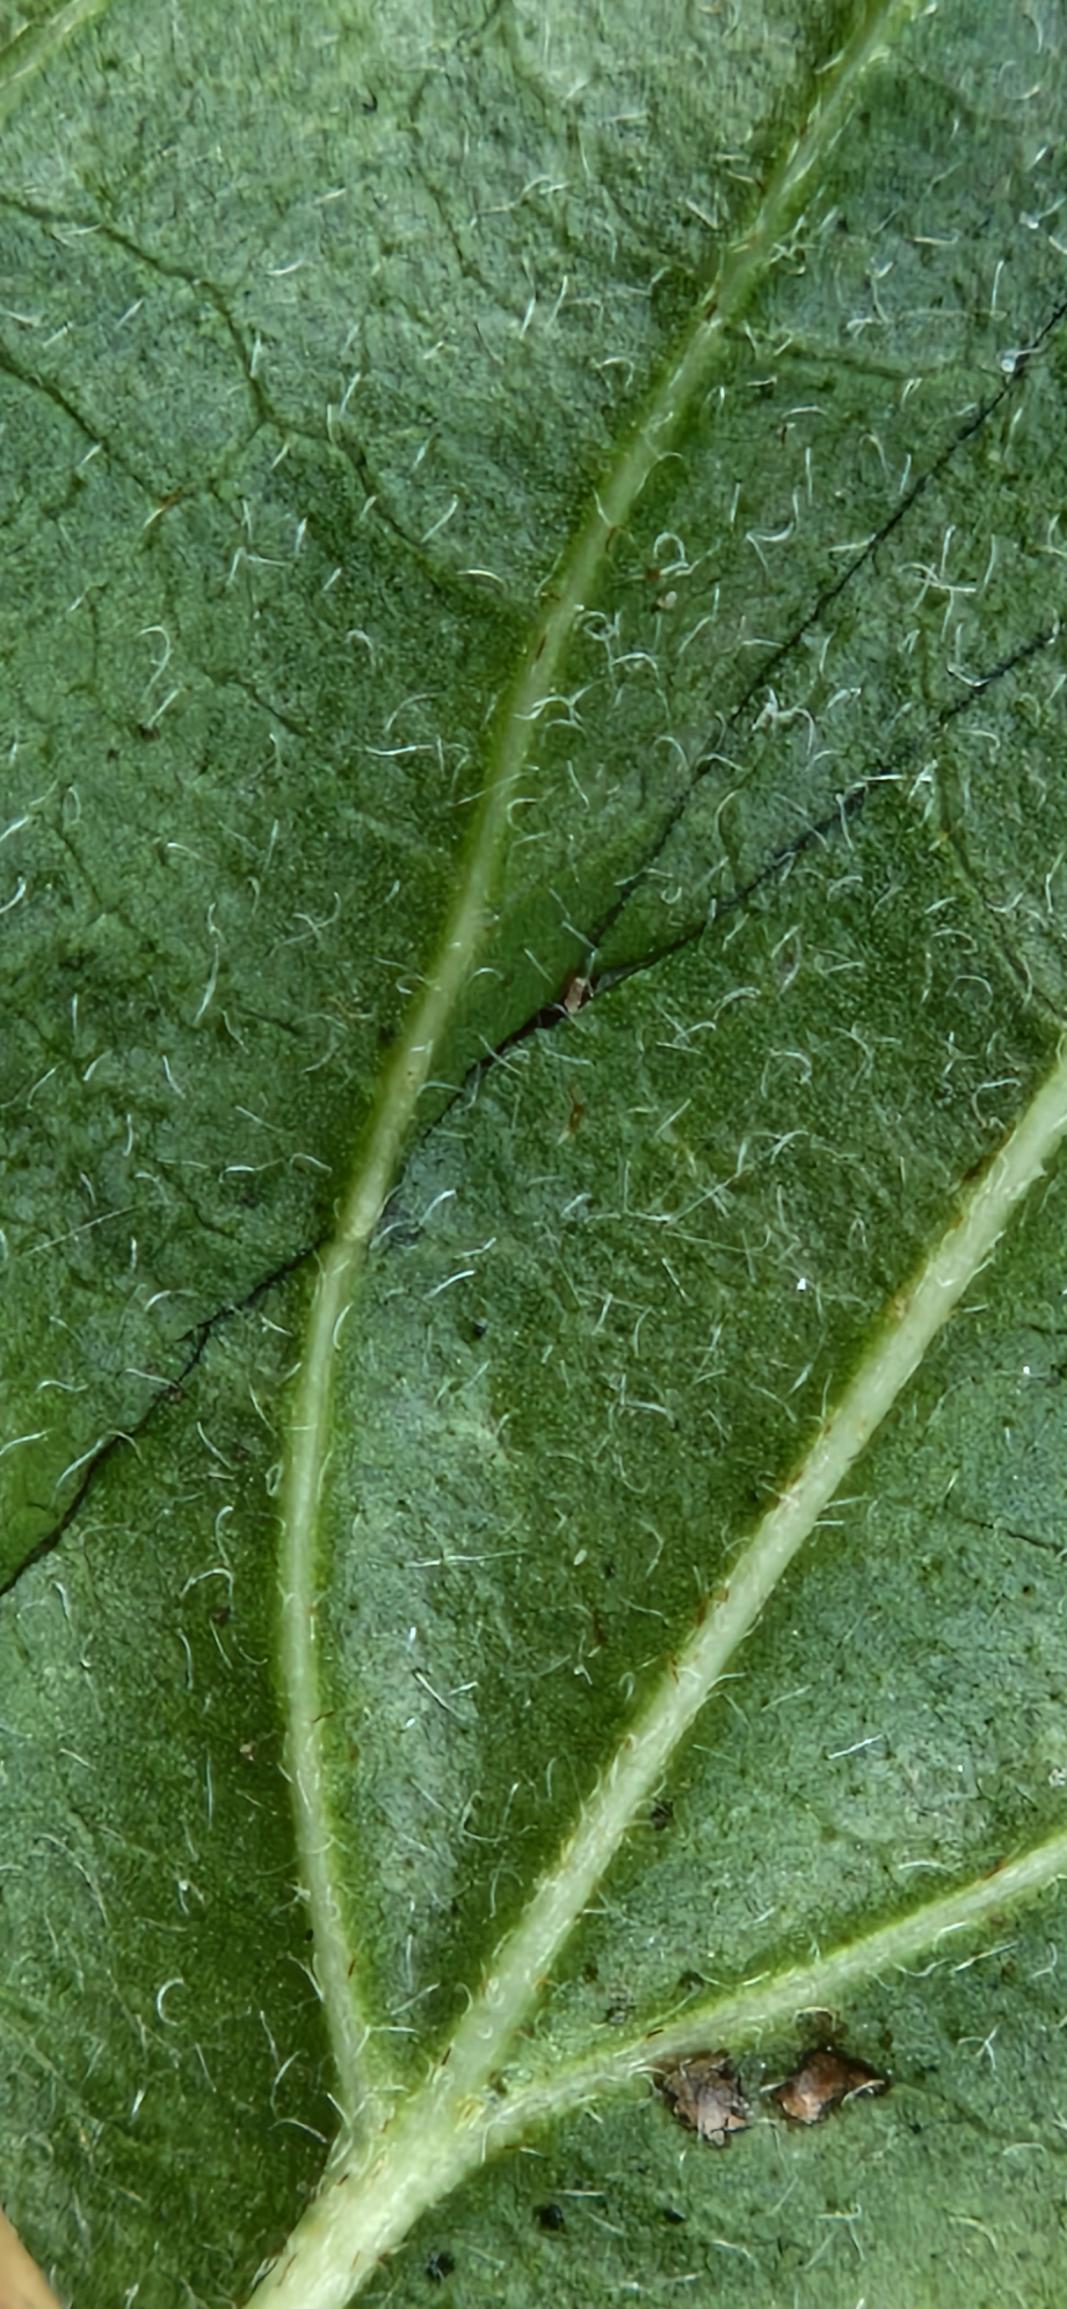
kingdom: Plantae
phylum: Tracheophyta
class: Magnoliopsida
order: Cornales
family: Cornaceae
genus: Cornus
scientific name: Cornus sanguinea
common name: Rød kornel
